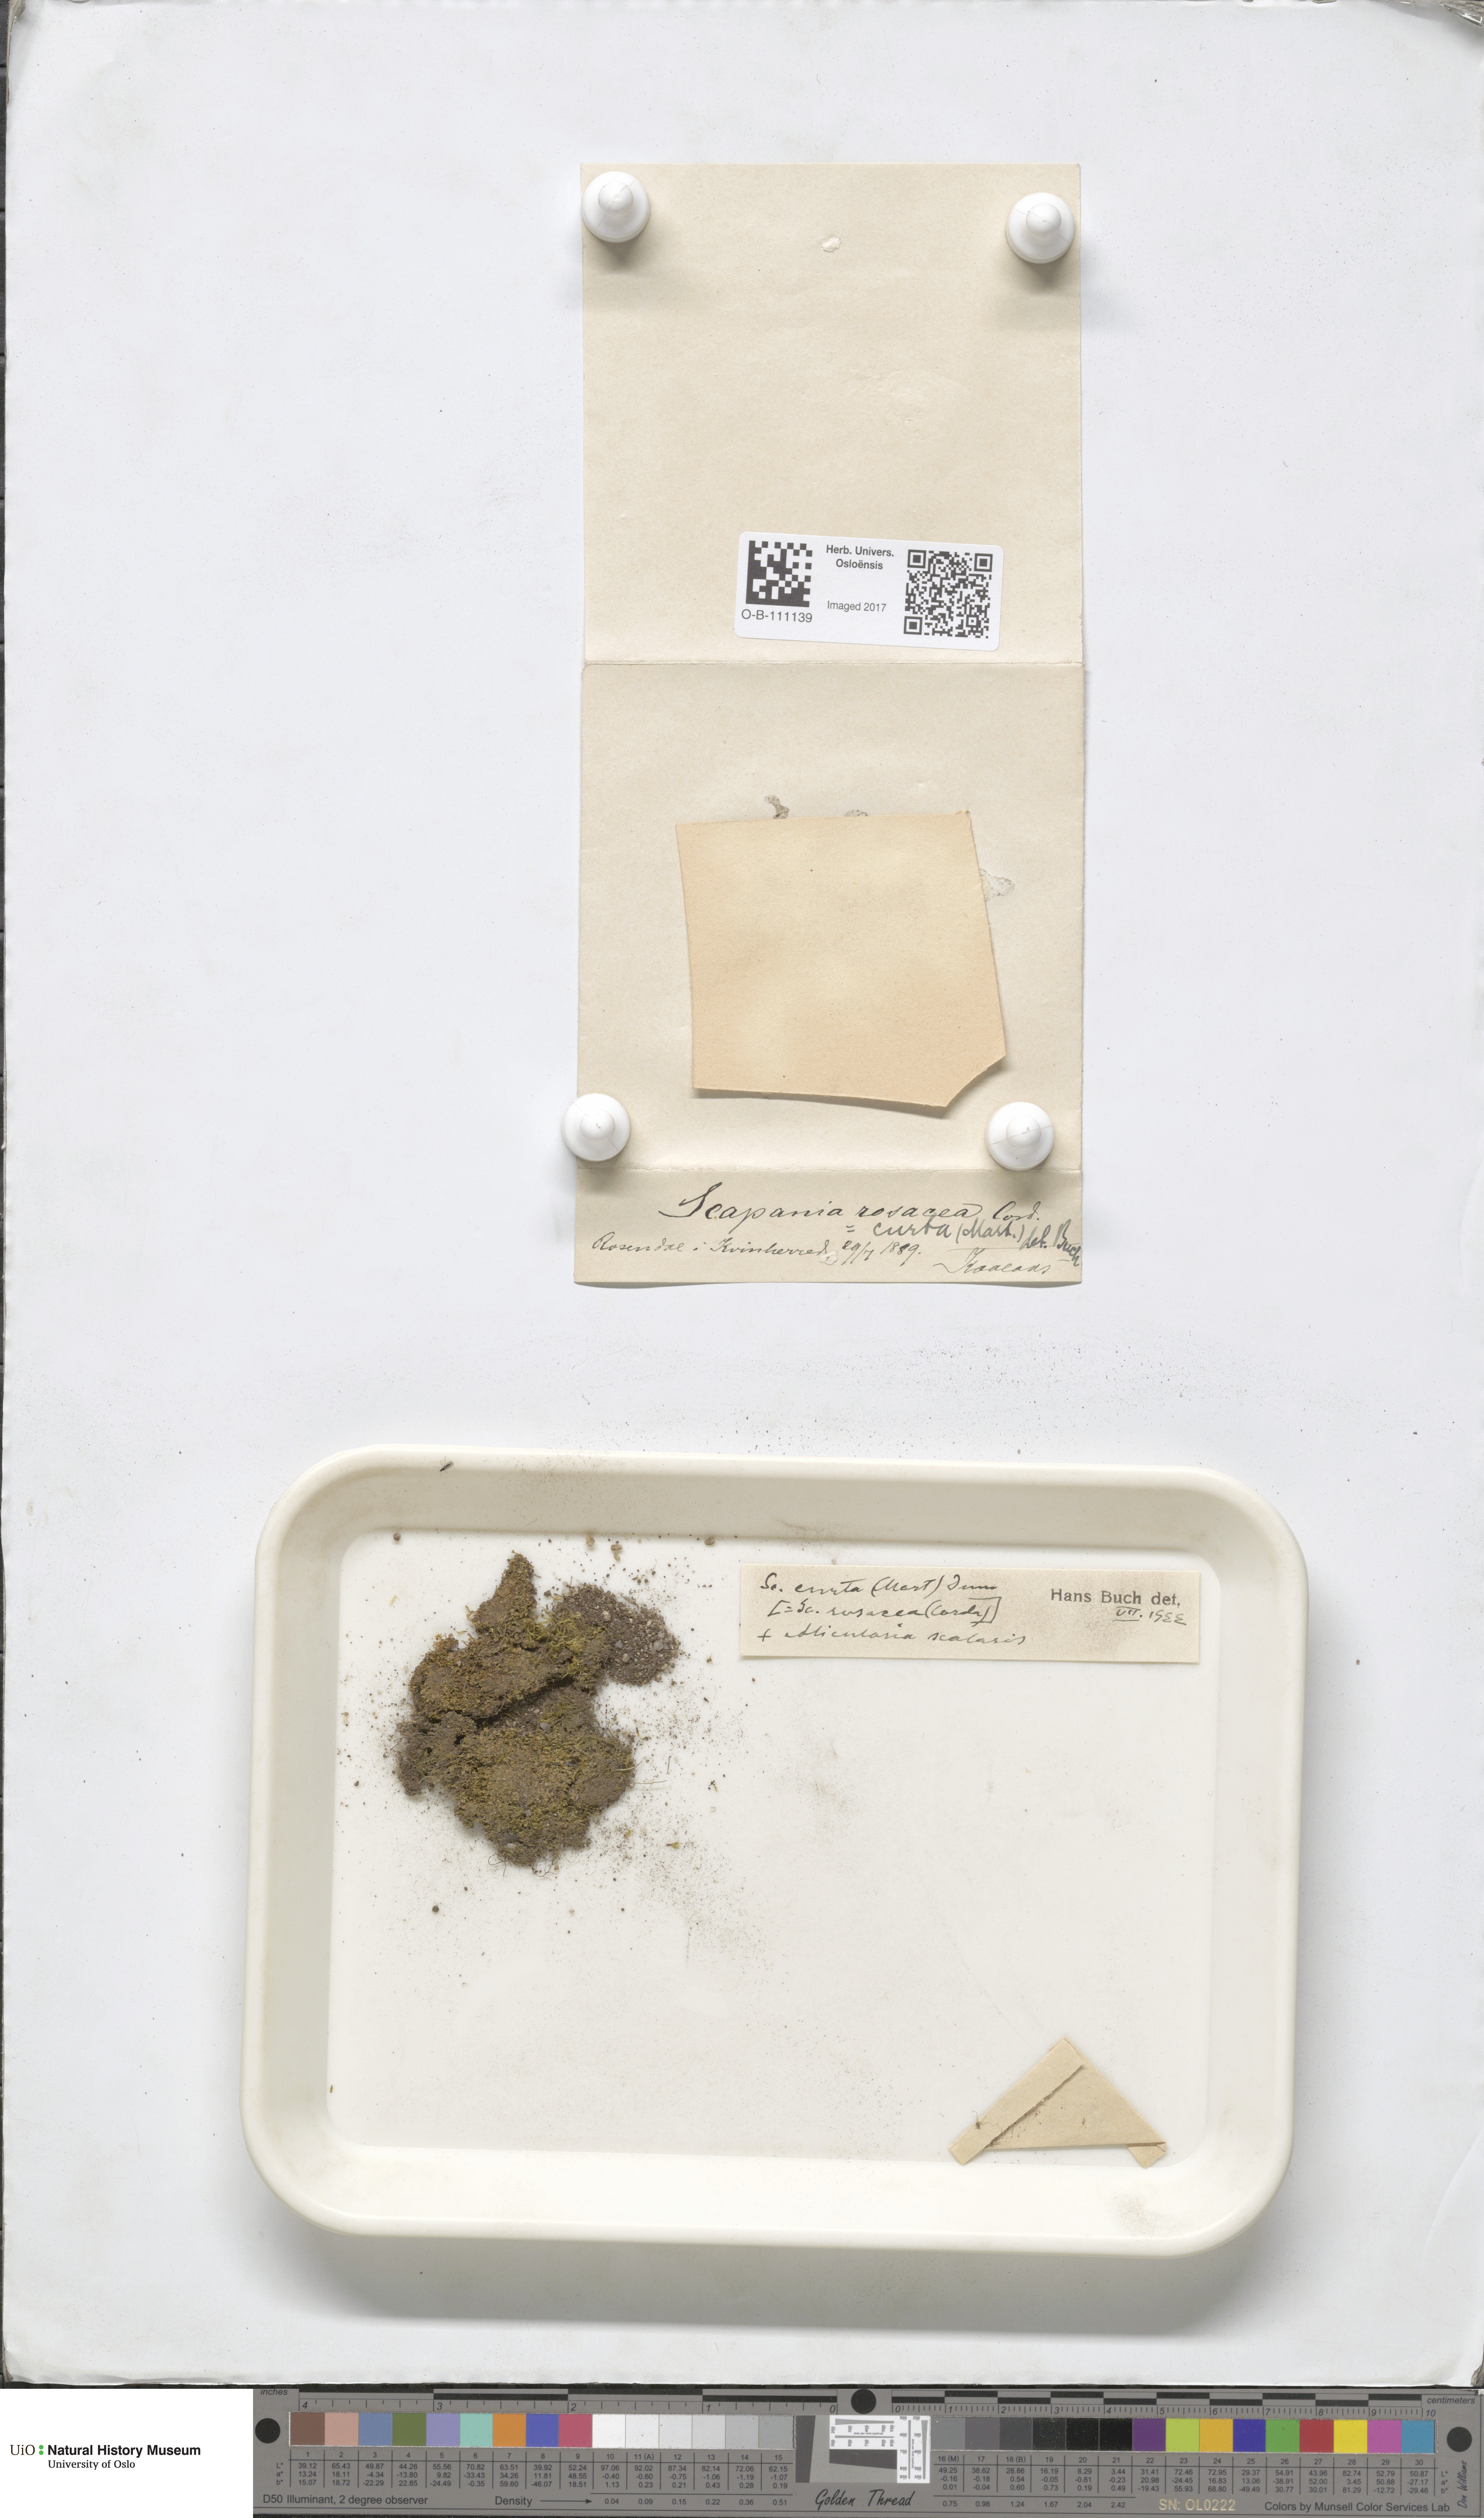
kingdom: Plantae
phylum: Marchantiophyta
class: Jungermanniopsida
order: Jungermanniales
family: Scapaniaceae
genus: Scapania
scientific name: Scapania curta
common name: Least earwort
